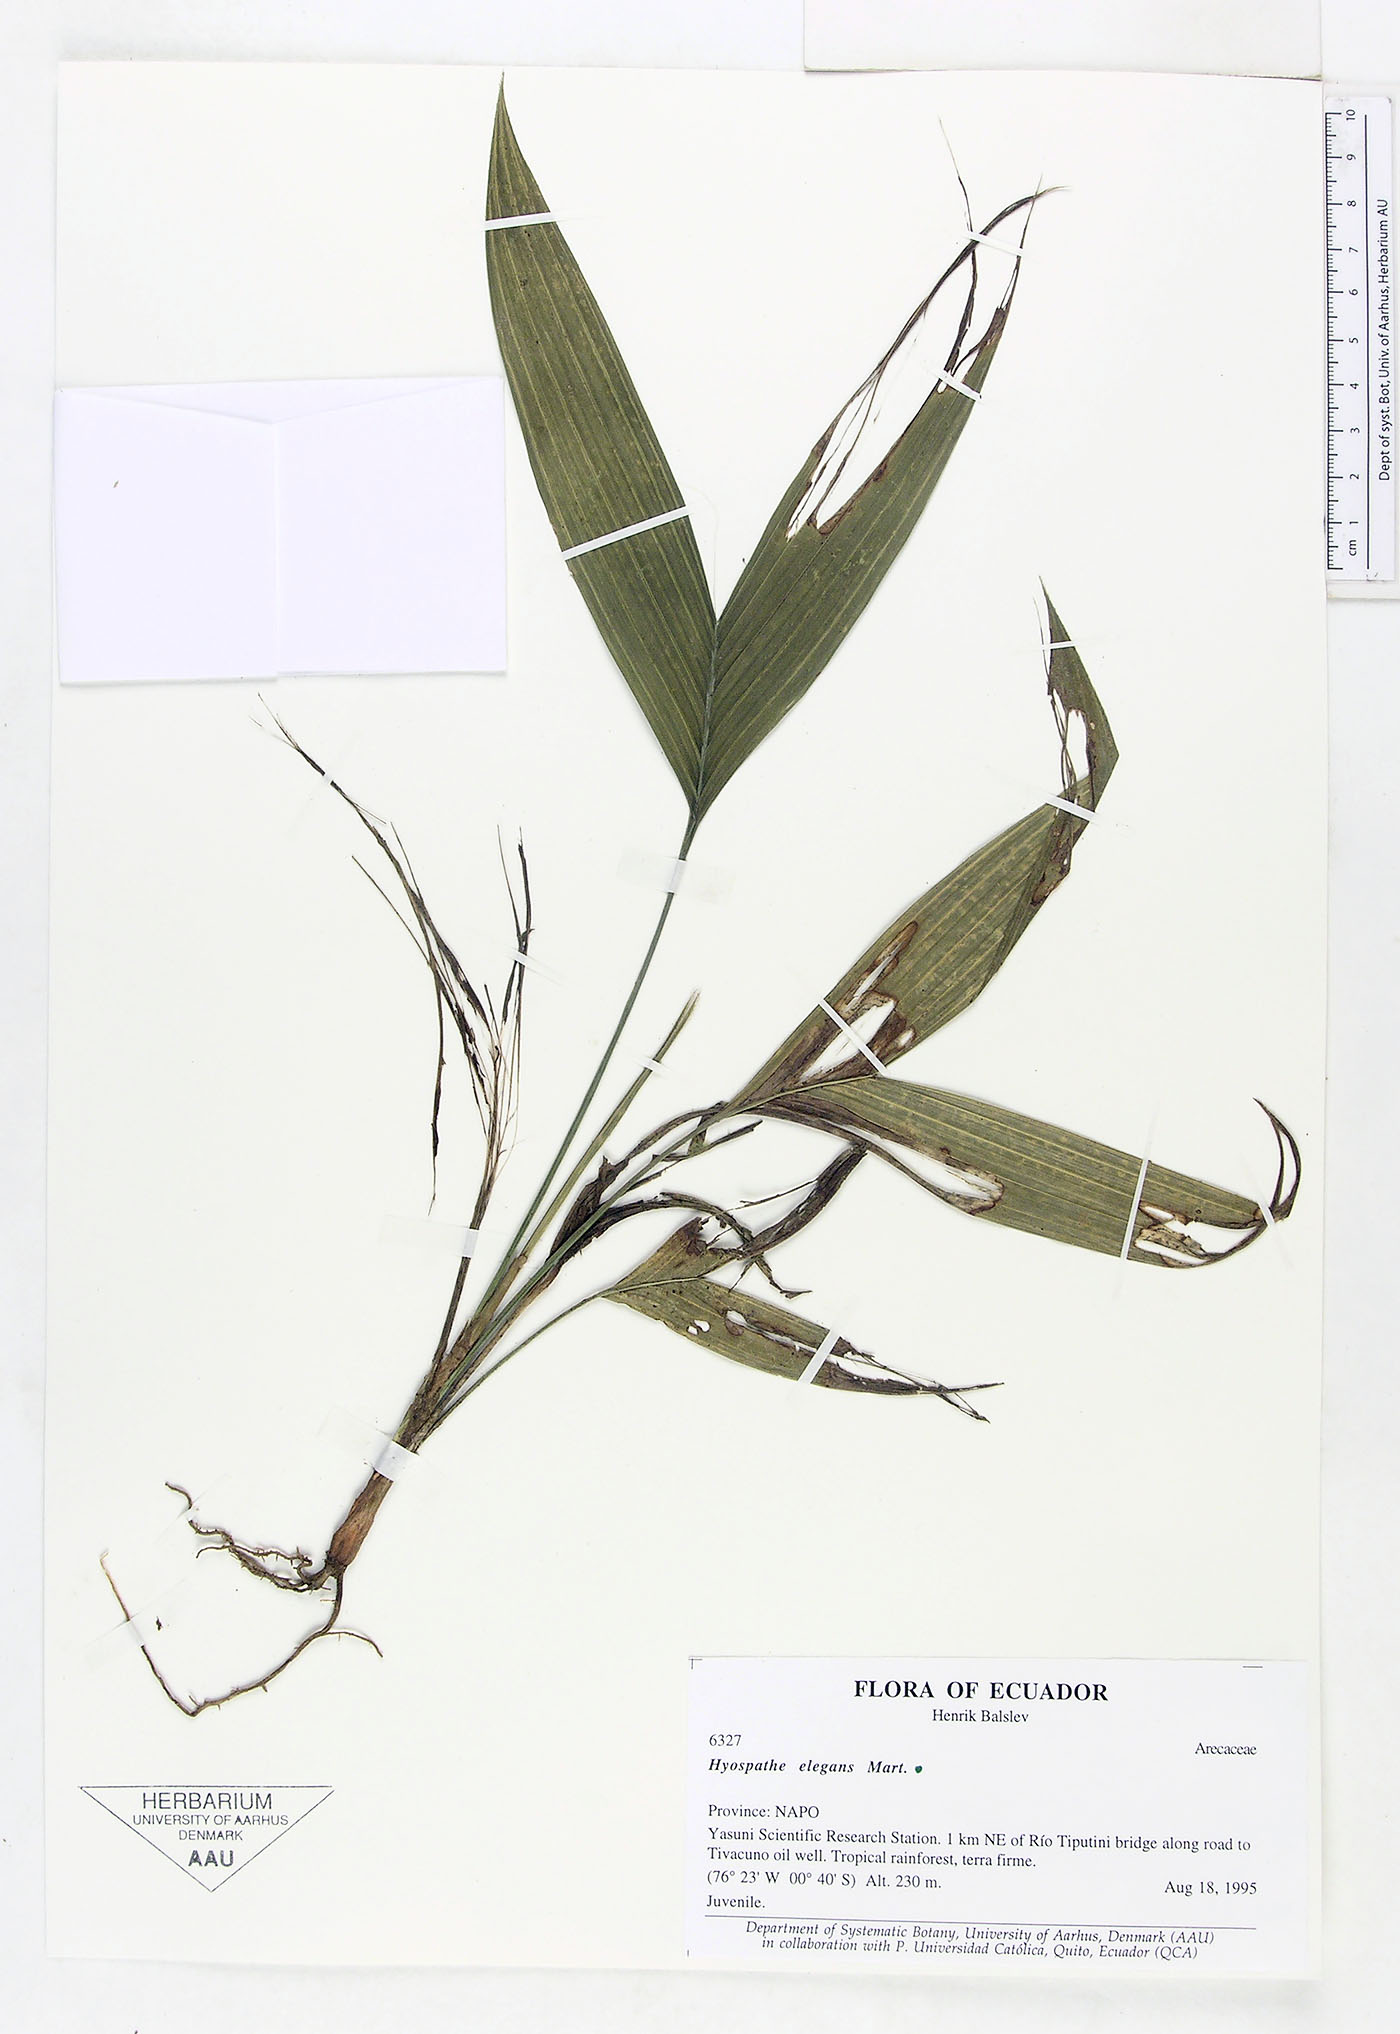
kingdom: Plantae
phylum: Tracheophyta
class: Liliopsida
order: Arecales
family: Arecaceae
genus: Hyospathe
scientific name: Hyospathe elegans
